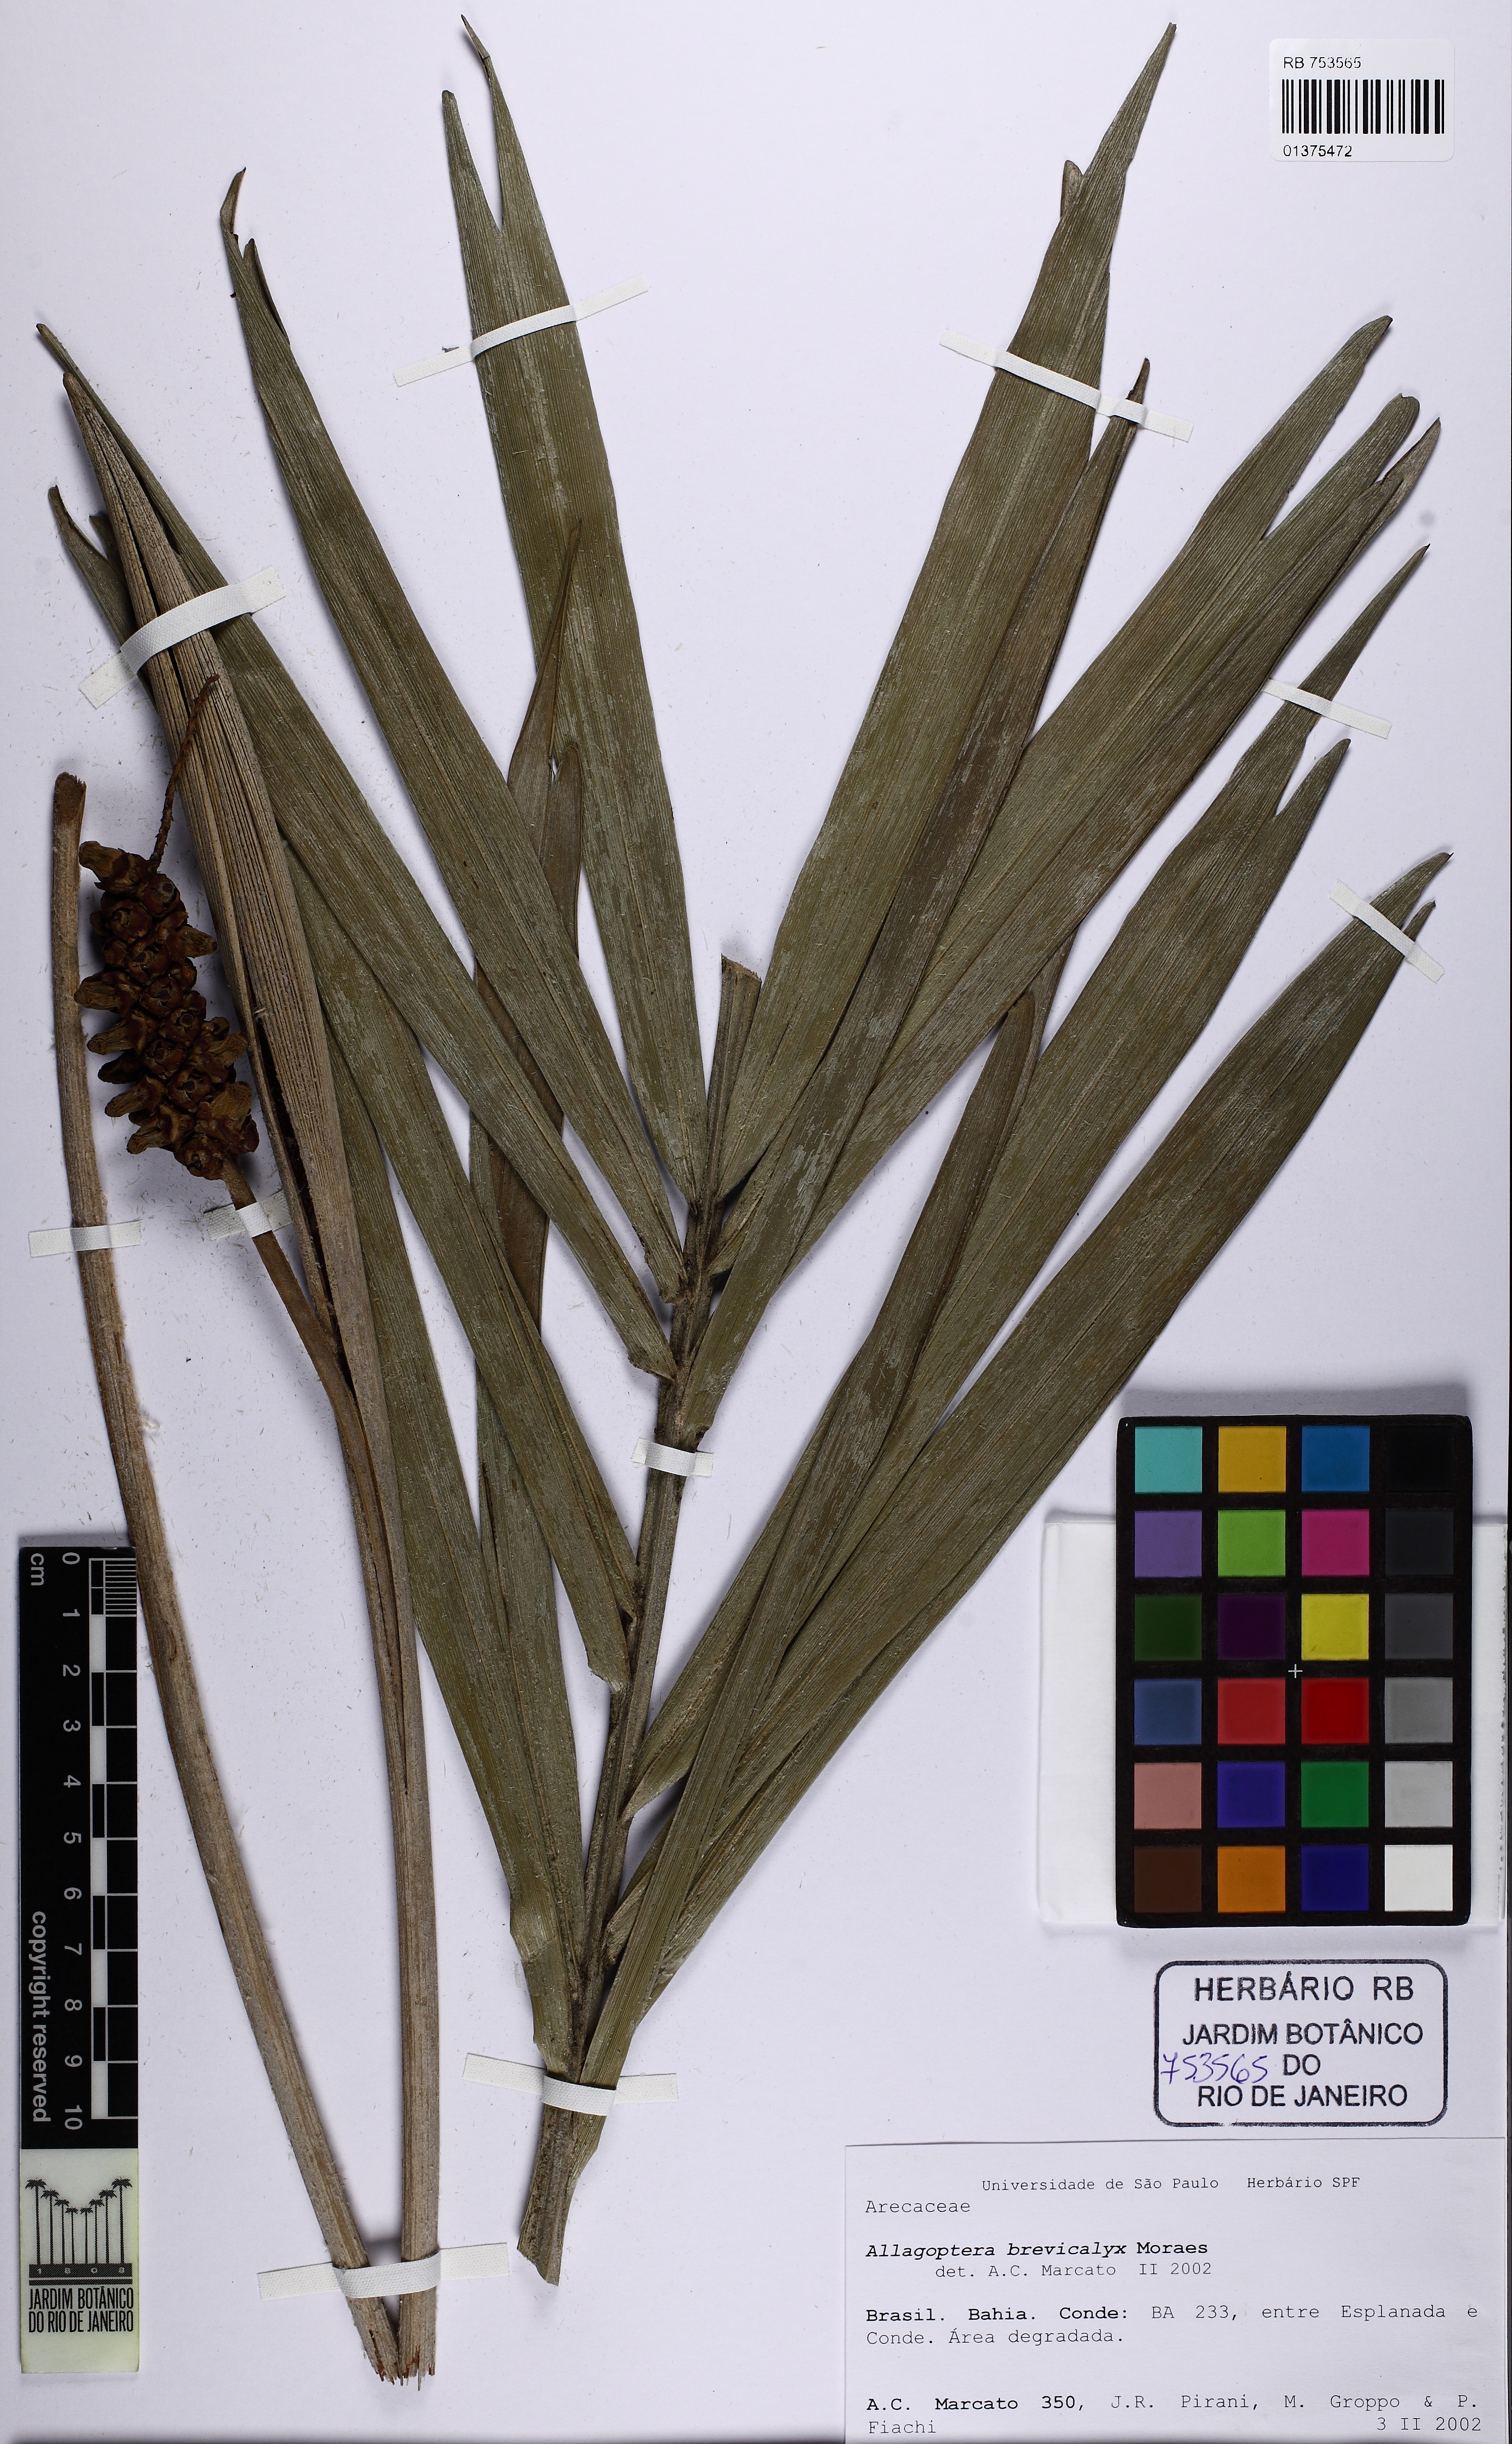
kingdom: Plantae
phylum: Tracheophyta
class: Liliopsida
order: Arecales
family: Arecaceae
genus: Allagoptera
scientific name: Allagoptera brevicalyx
